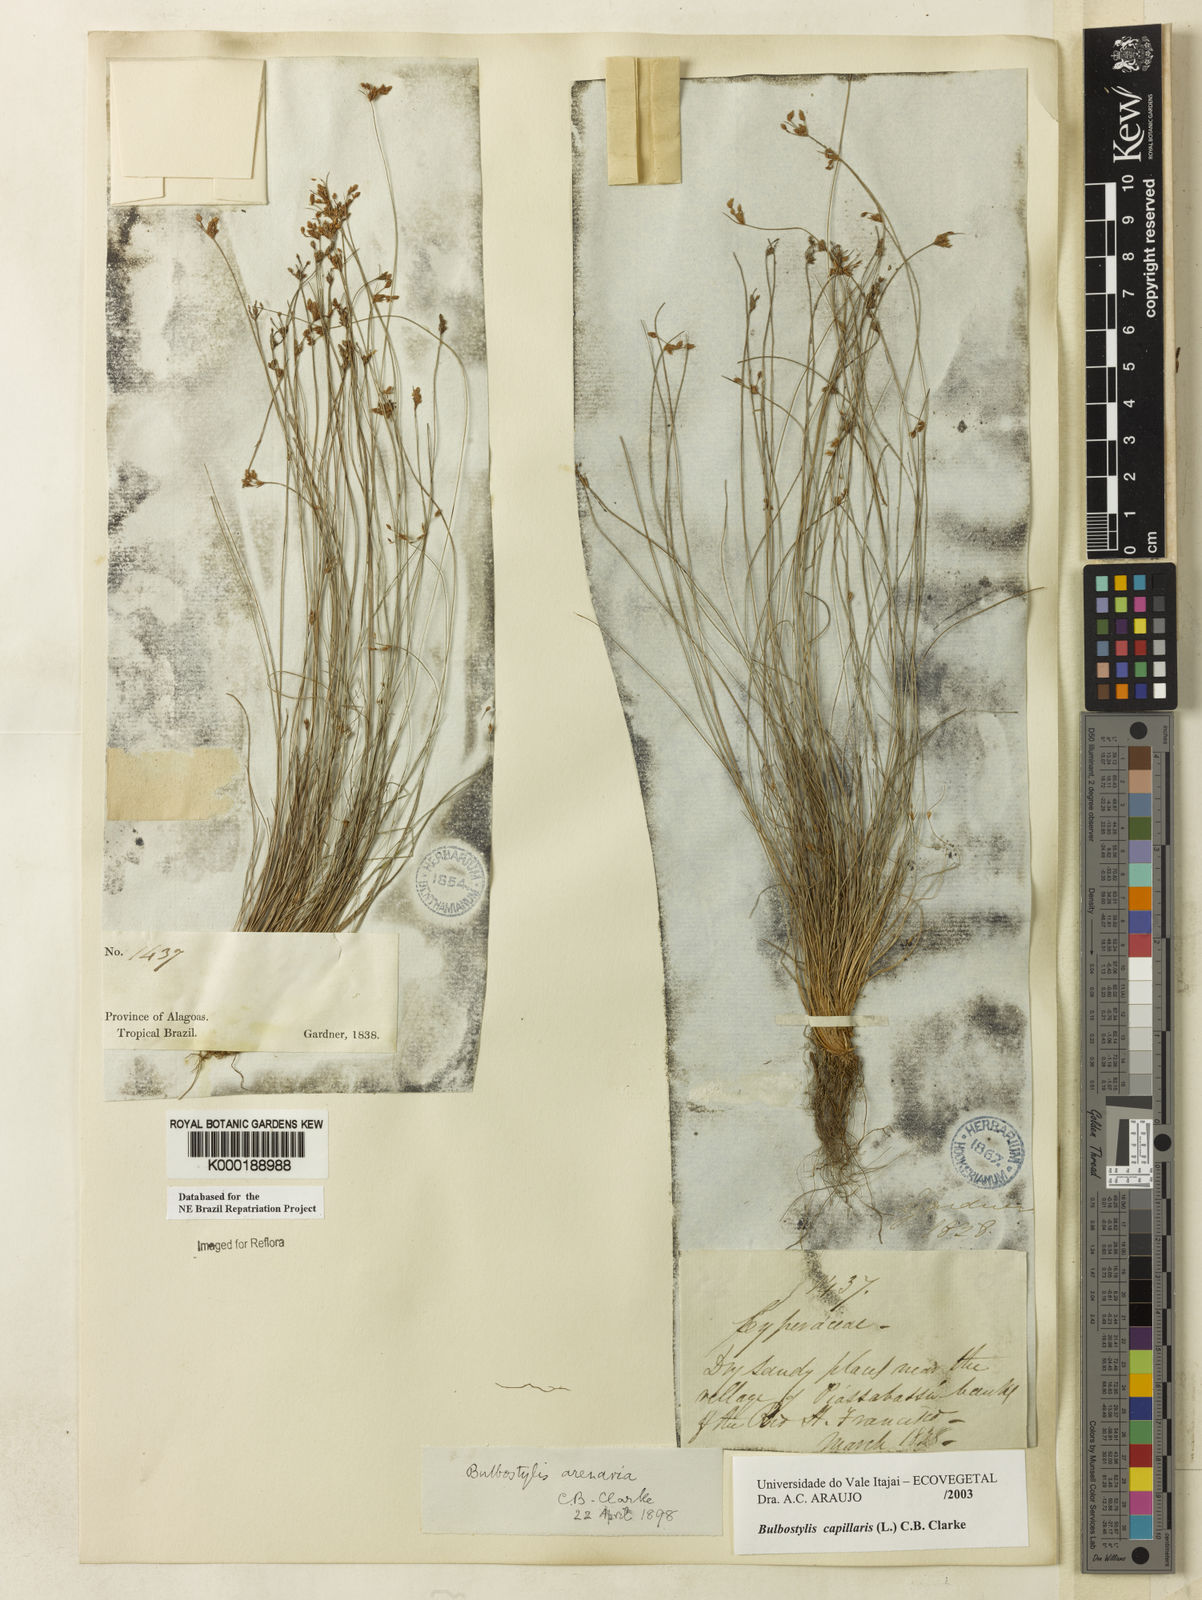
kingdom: Plantae
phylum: Tracheophyta
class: Liliopsida
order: Poales
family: Cyperaceae
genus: Bulbostylis
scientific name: Bulbostylis capillaris
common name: Densetuft hairsedge
